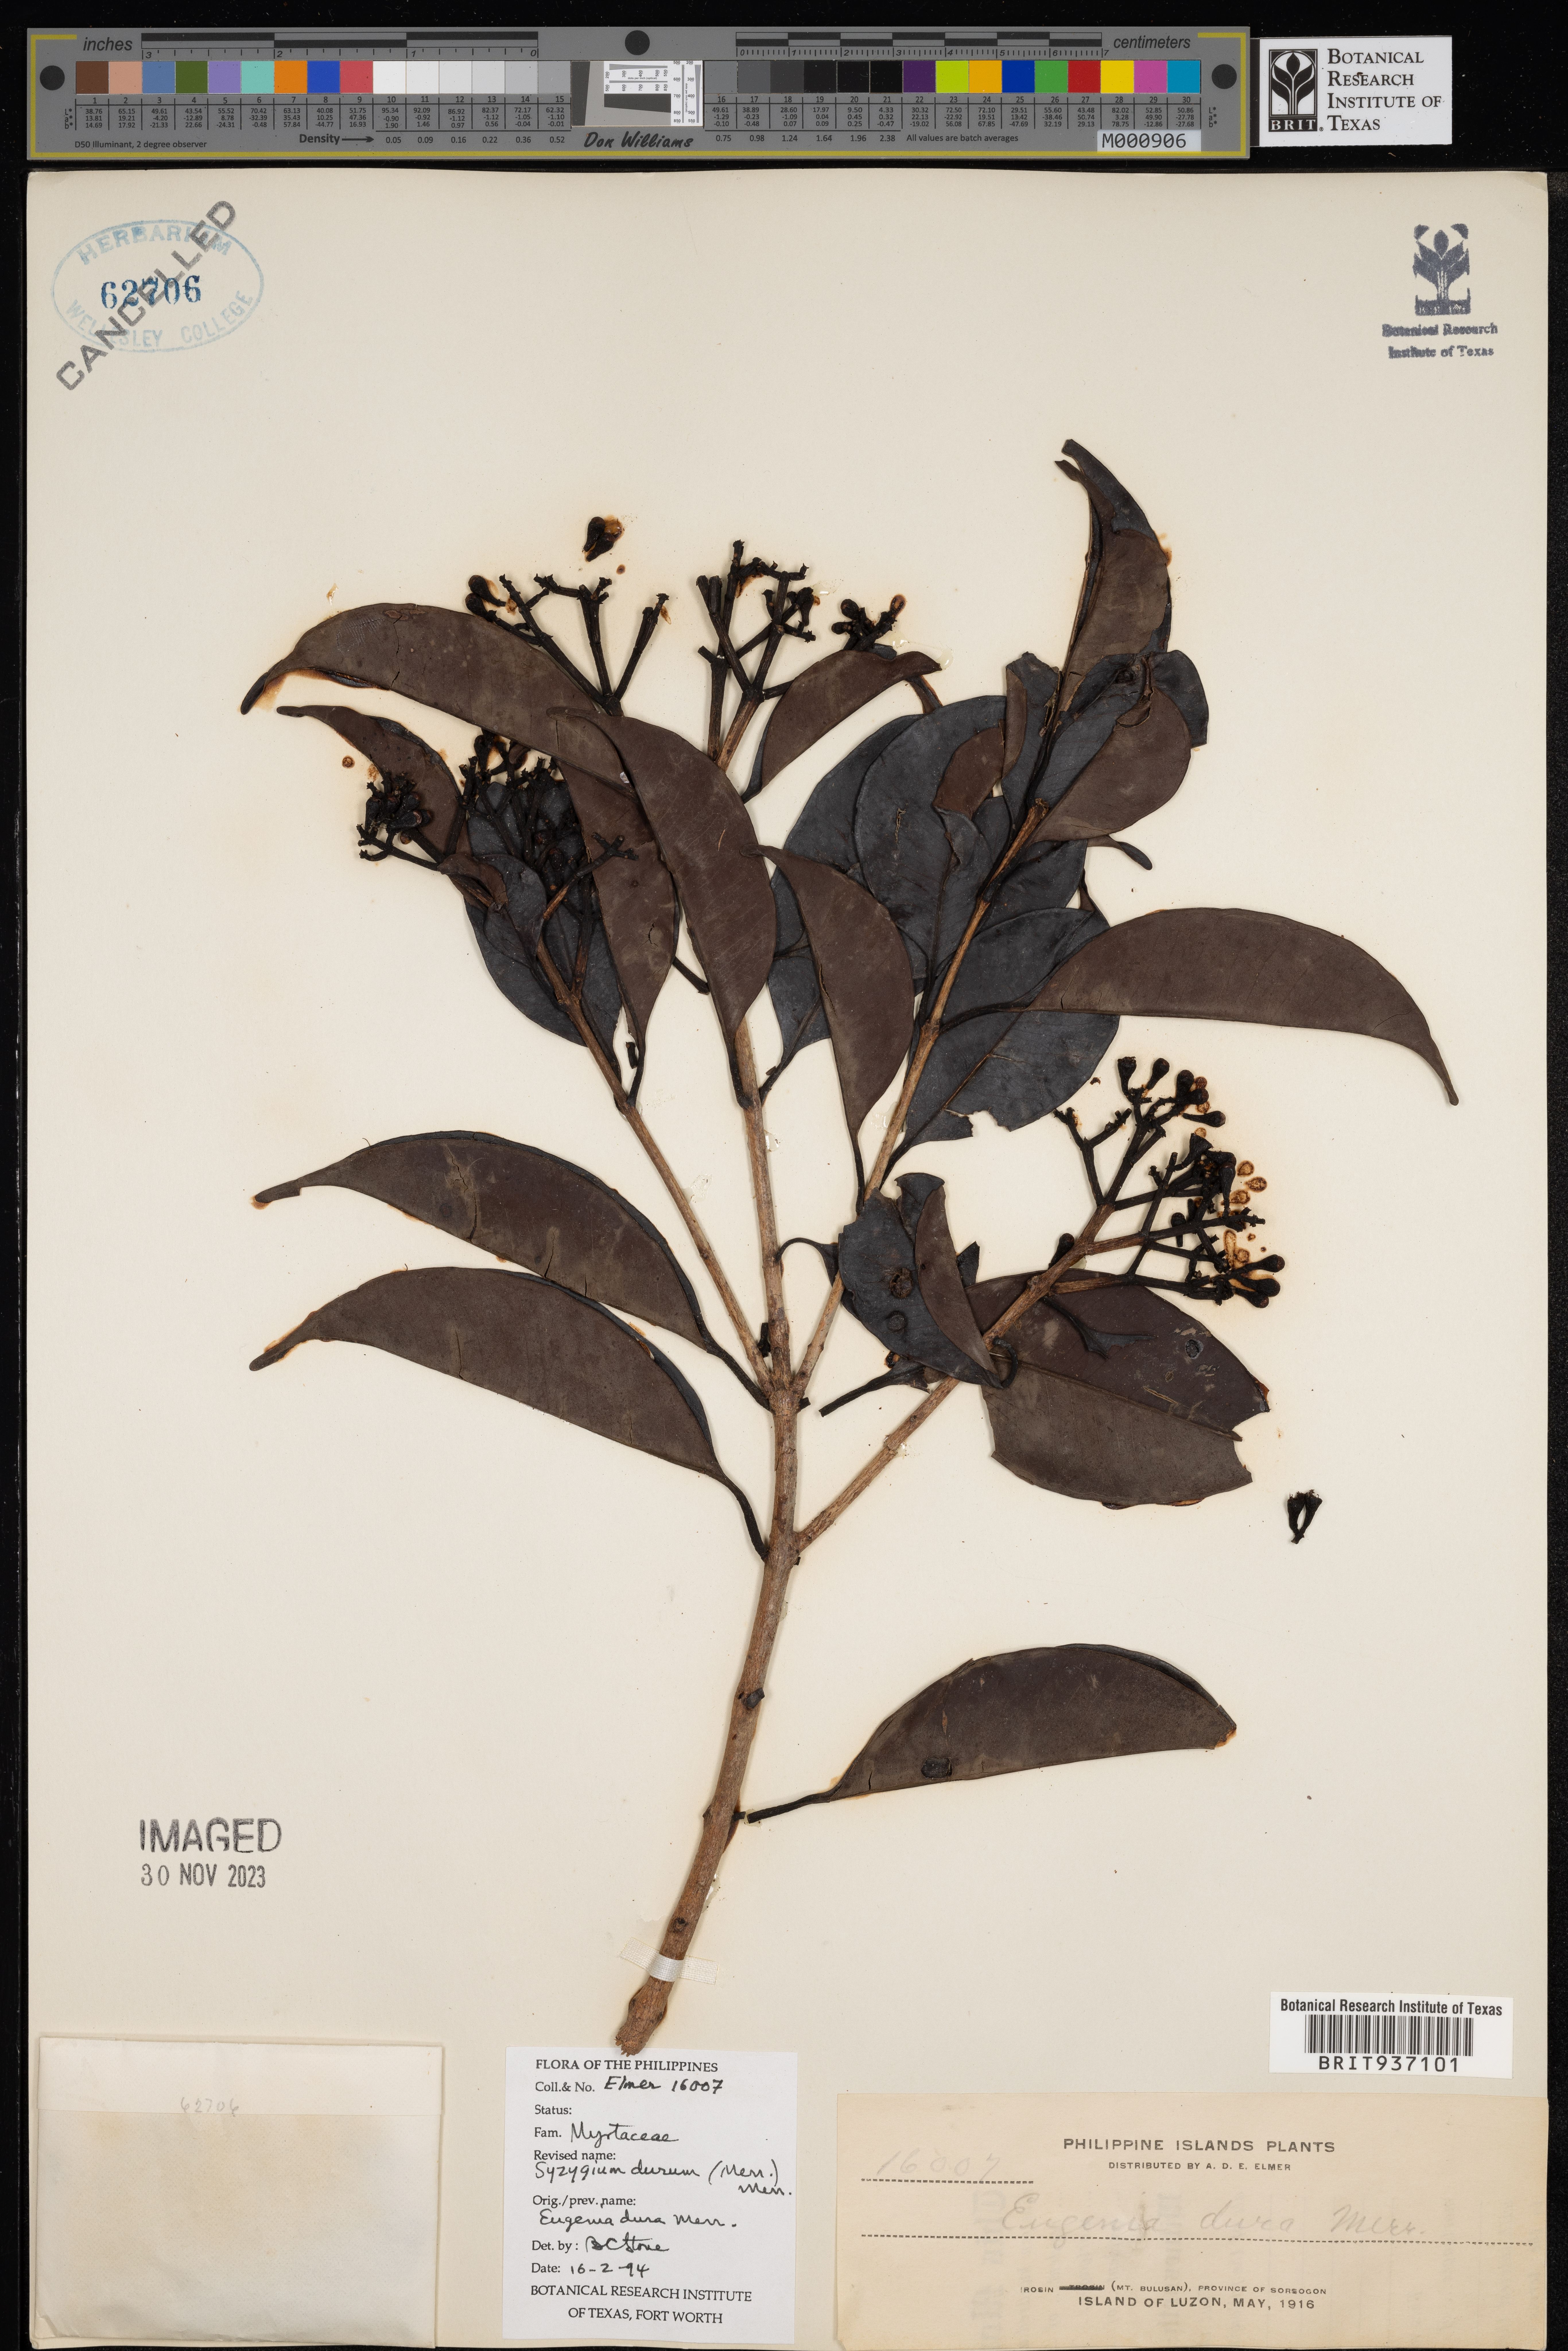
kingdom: Plantae
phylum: Tracheophyta
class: Magnoliopsida
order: Myrtales
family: Myrtaceae
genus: Syzygium
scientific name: Syzygium
